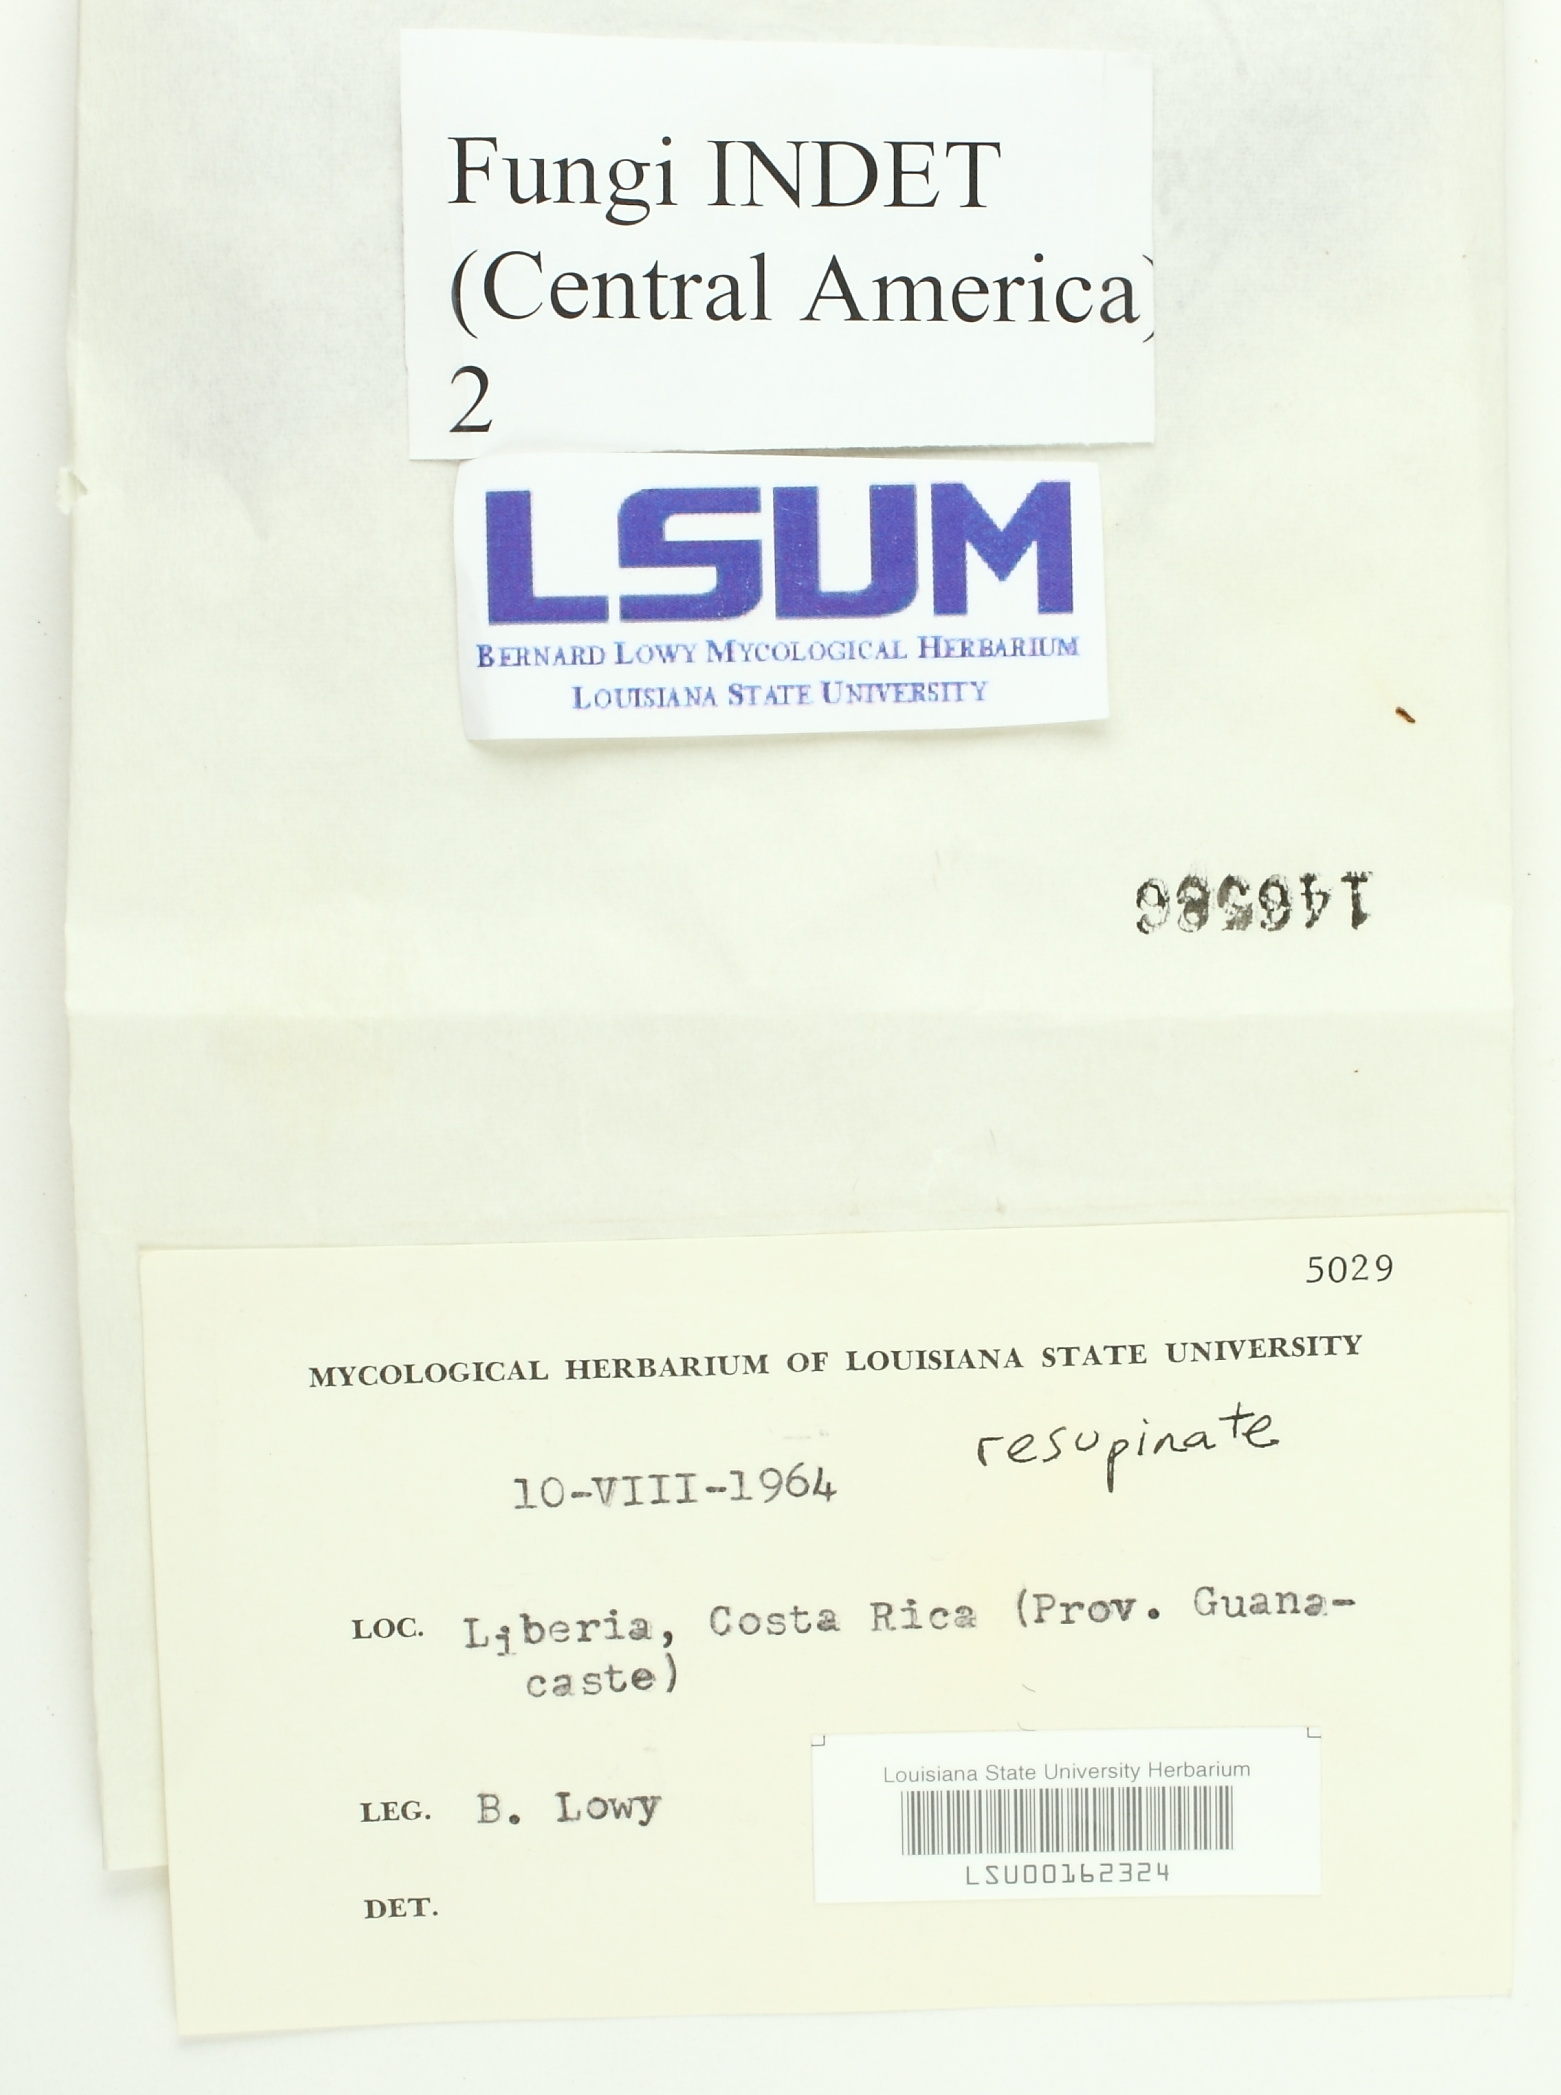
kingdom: Fungi
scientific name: Fungi
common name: Fungi
